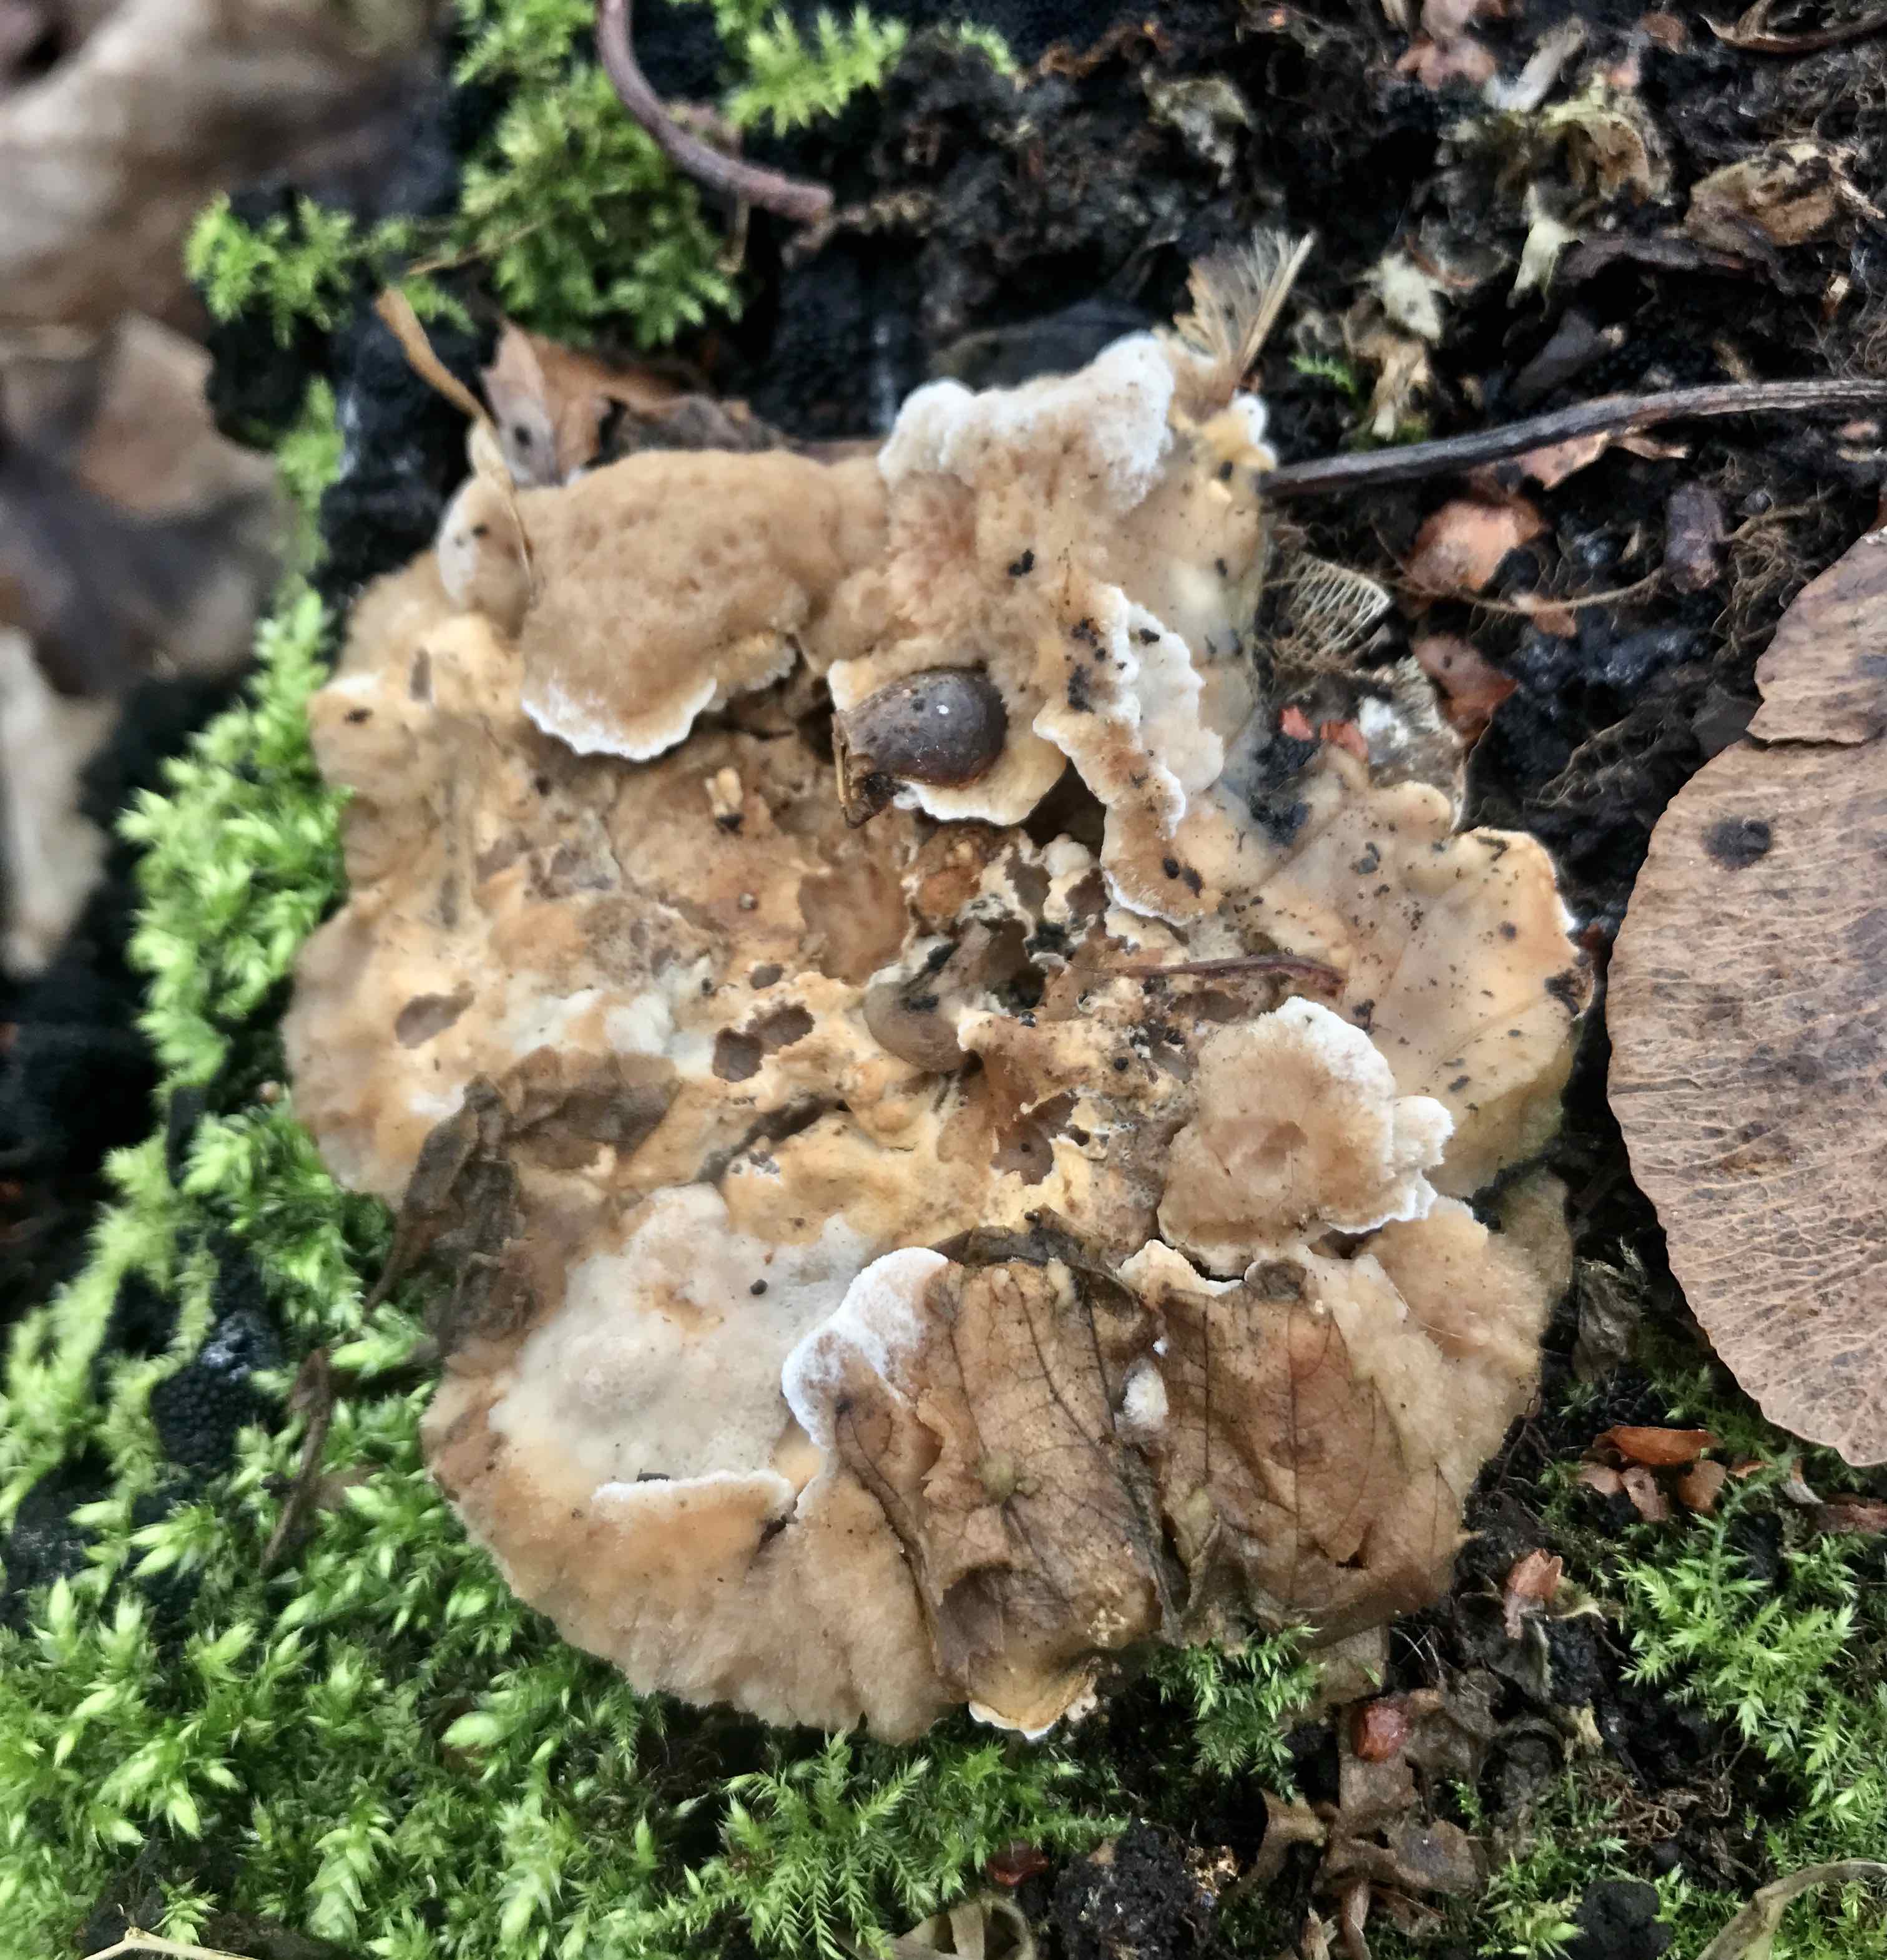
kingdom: Fungi
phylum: Basidiomycota
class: Agaricomycetes
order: Polyporales
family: Phanerochaetaceae
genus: Bjerkandera
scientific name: Bjerkandera fumosa
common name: grågul sodporesvamp
